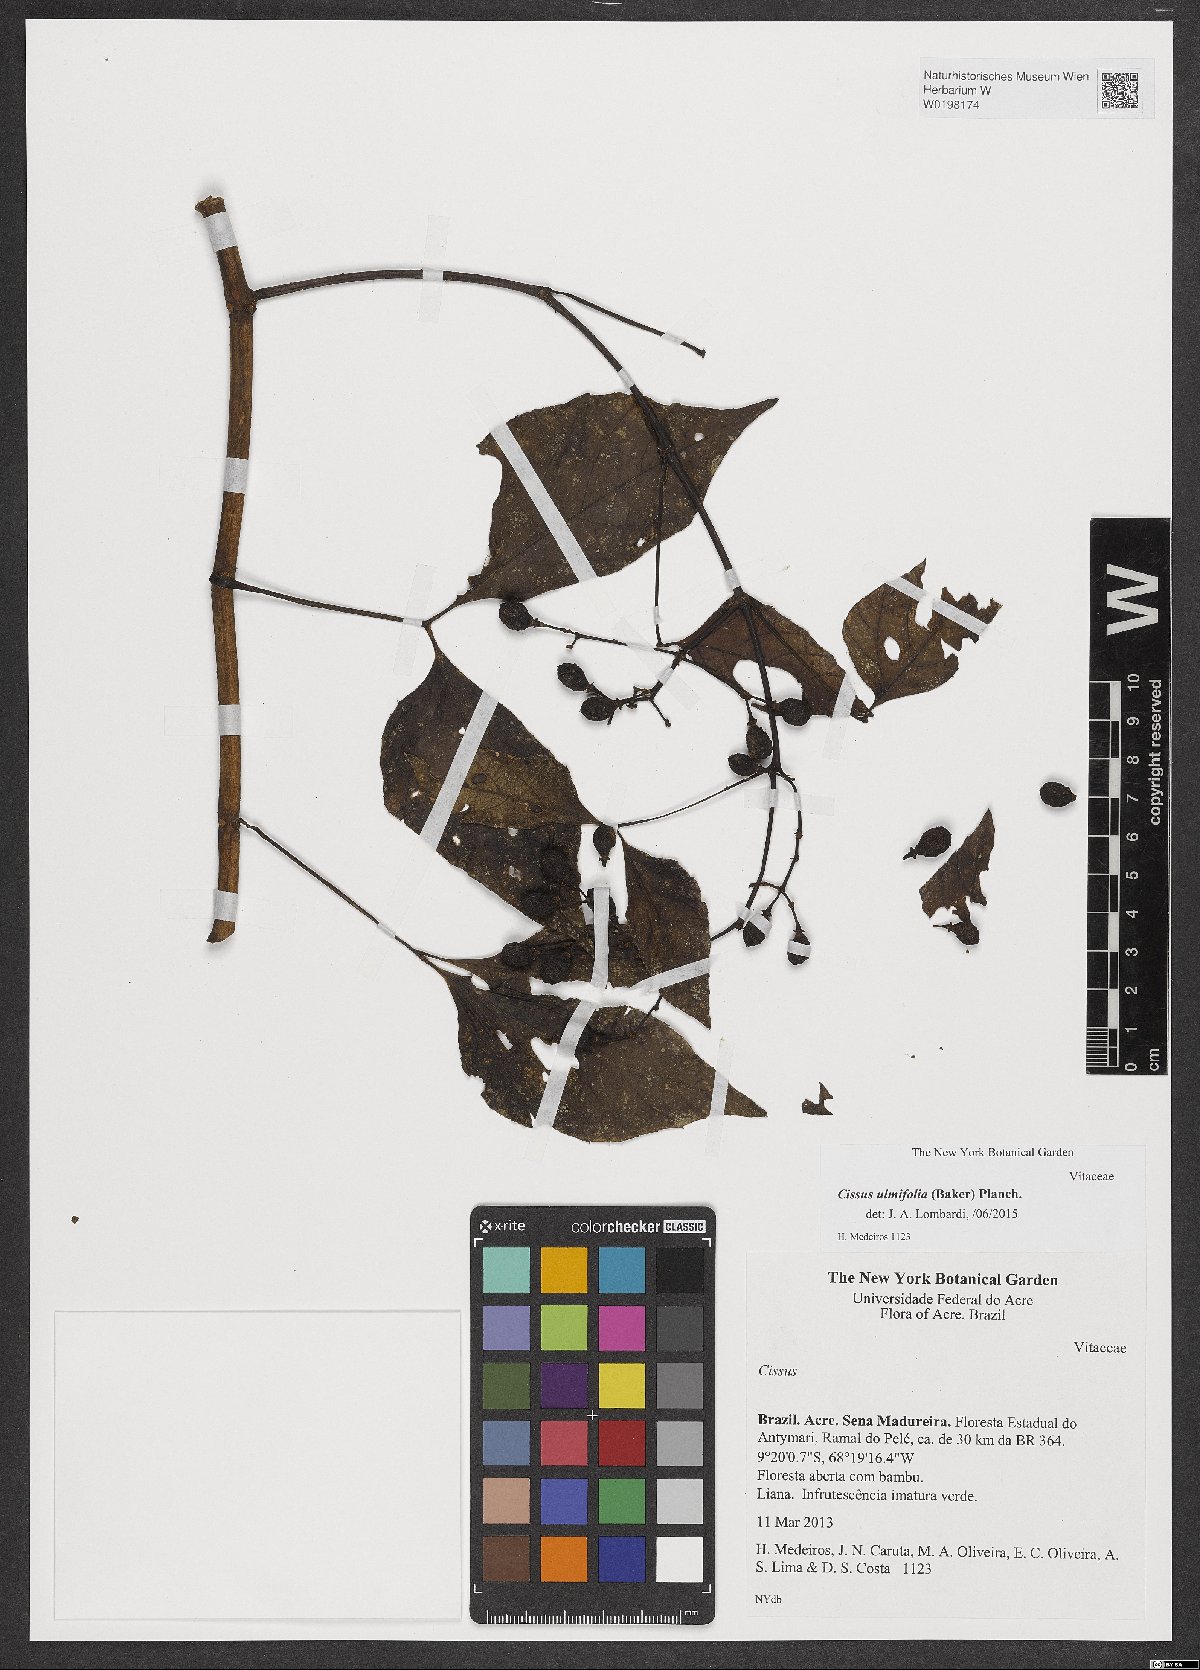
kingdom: Plantae
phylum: Tracheophyta
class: Magnoliopsida
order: Vitales
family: Vitaceae
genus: Cissus
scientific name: Cissus lombardiana
